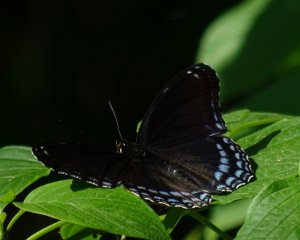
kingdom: Animalia
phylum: Arthropoda
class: Insecta
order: Lepidoptera
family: Nymphalidae
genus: Limenitis
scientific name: Limenitis astyanax
